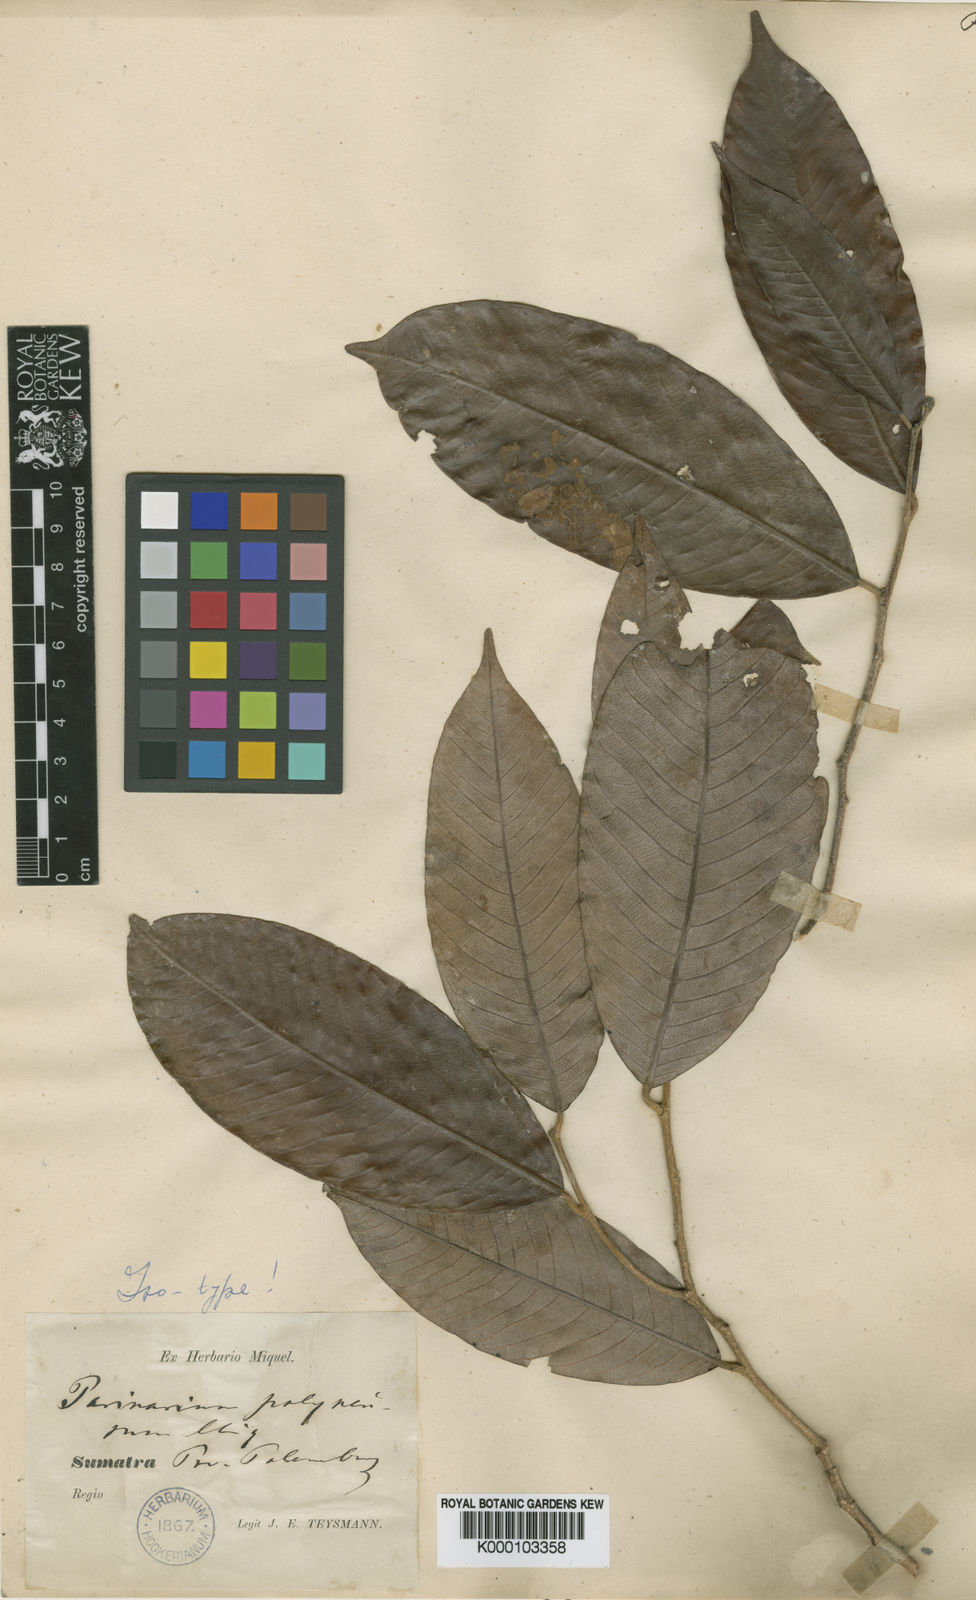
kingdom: Plantae
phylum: Tracheophyta
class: Magnoliopsida
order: Malpighiales
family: Chrysobalanaceae
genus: Parinari
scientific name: Parinari costata
